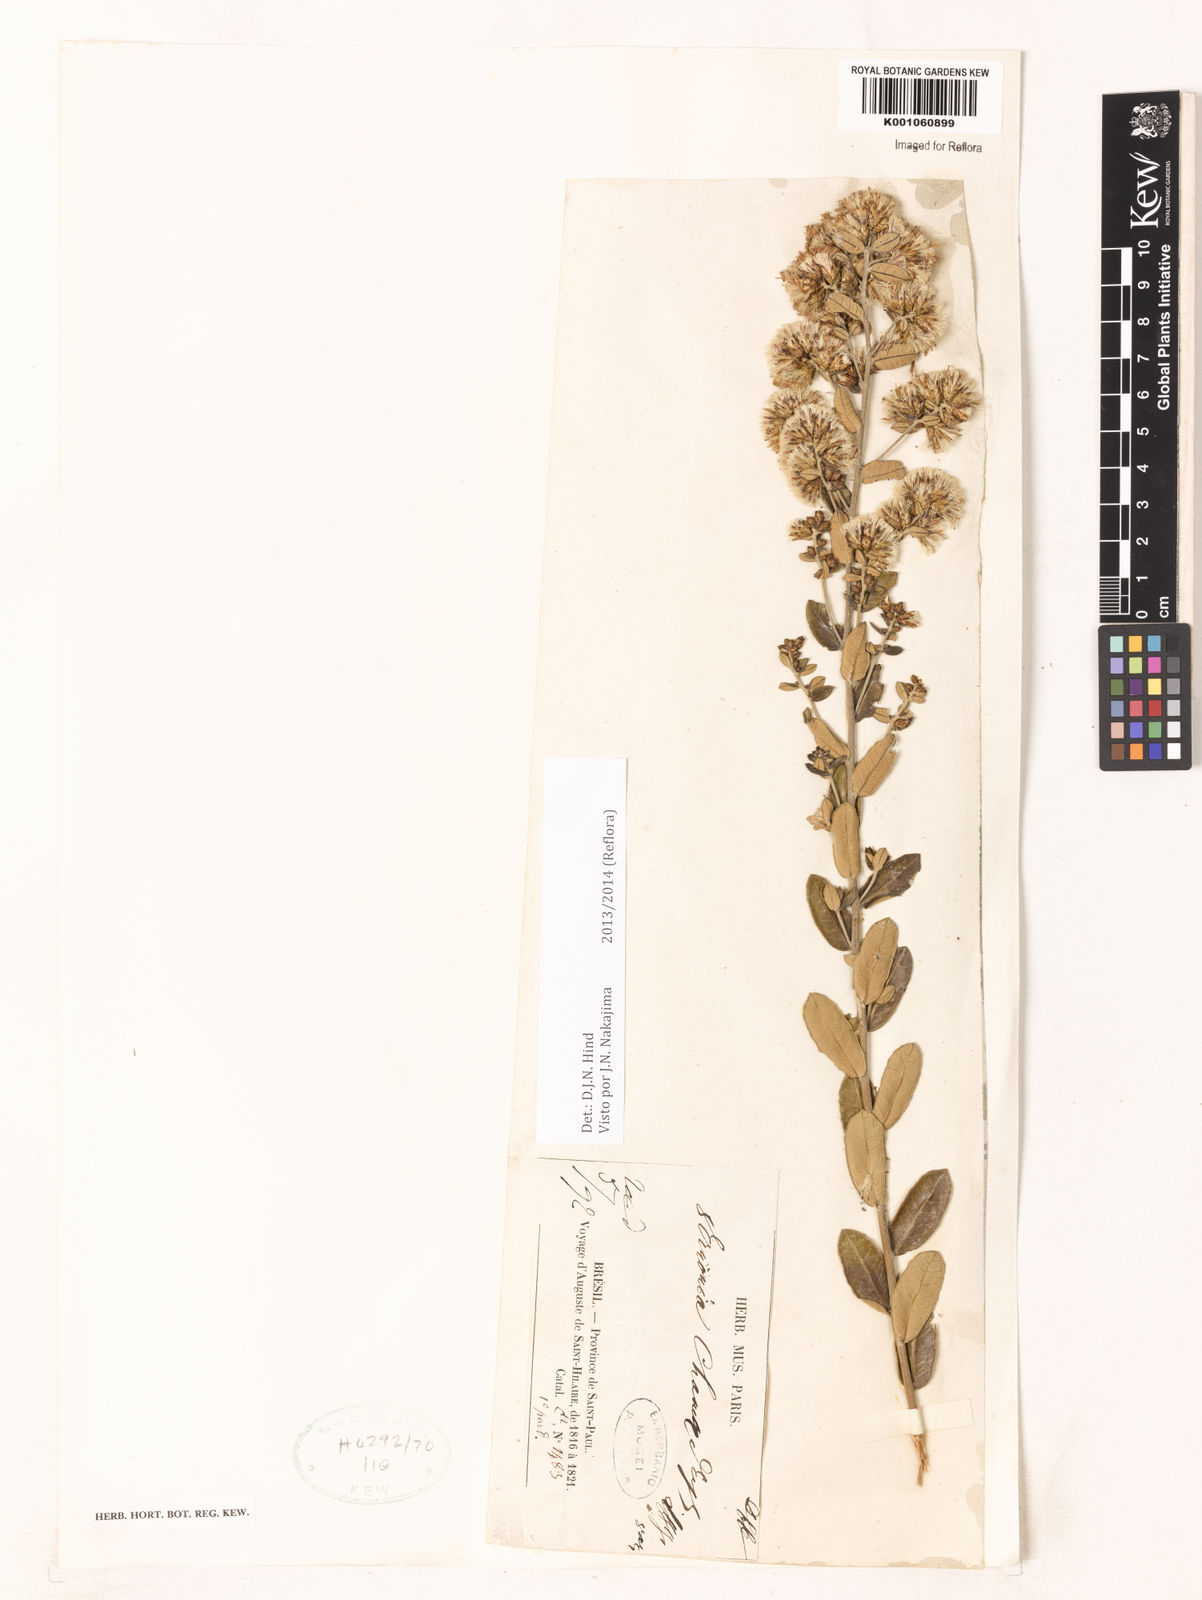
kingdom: Plantae
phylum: Tracheophyta
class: Magnoliopsida
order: Asterales
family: Asteraceae
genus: Vernonanthura
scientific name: Vernonanthura chamaedrys
